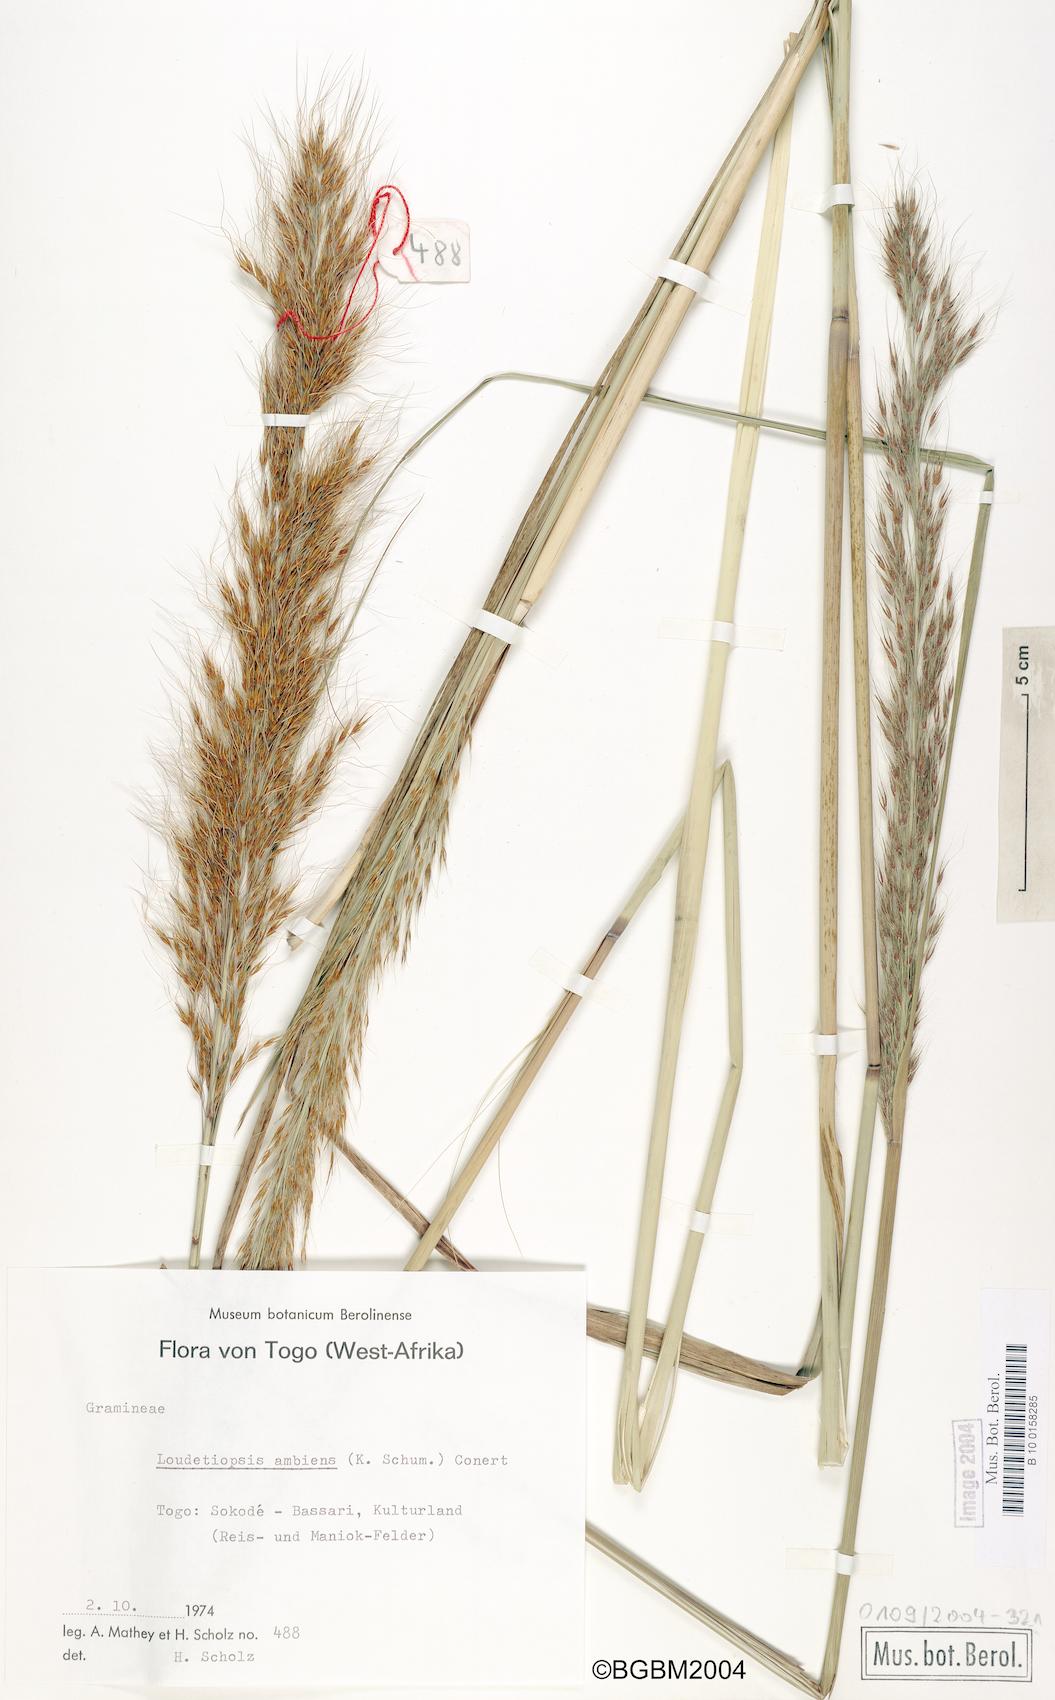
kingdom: Plantae
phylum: Tracheophyta
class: Liliopsida
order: Poales
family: Poaceae
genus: Loudetiopsis
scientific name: Loudetiopsis ambiens
